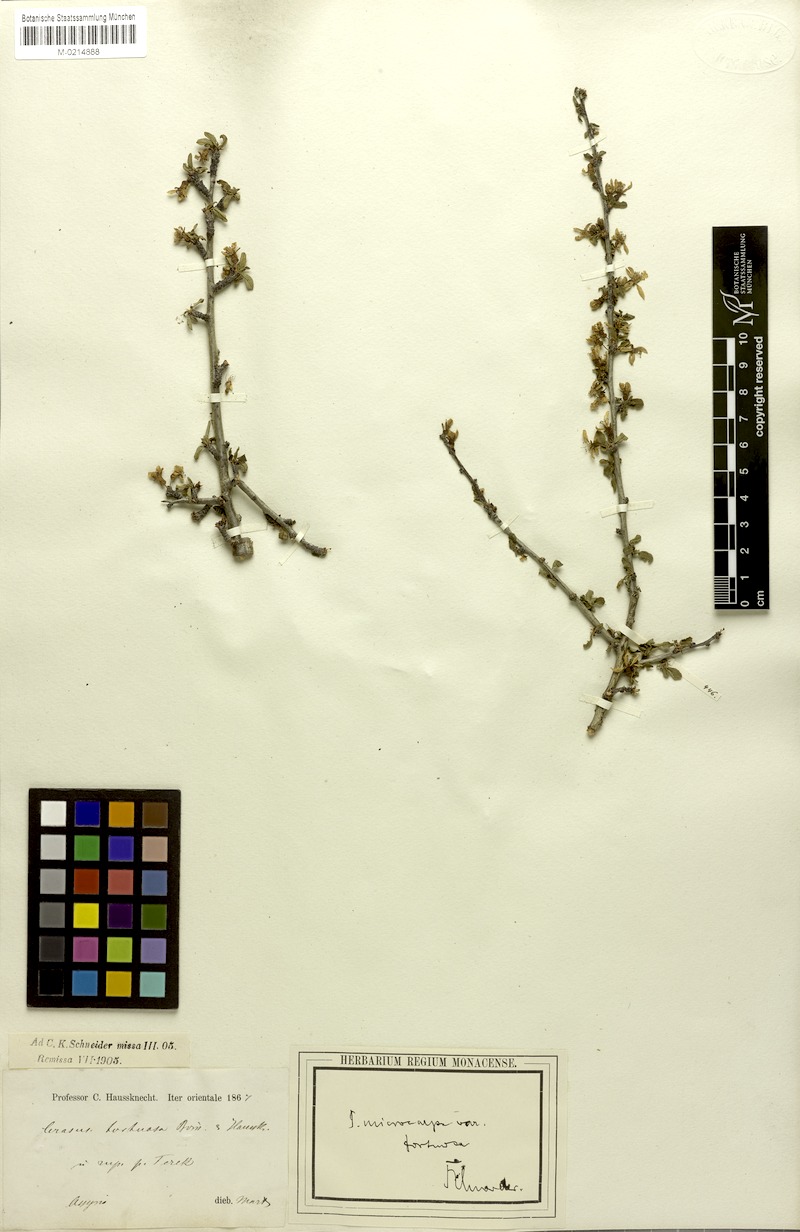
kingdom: Plantae
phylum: Tracheophyta
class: Magnoliopsida
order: Rosales
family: Rosaceae
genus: Prunus
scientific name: Prunus microcarpa
